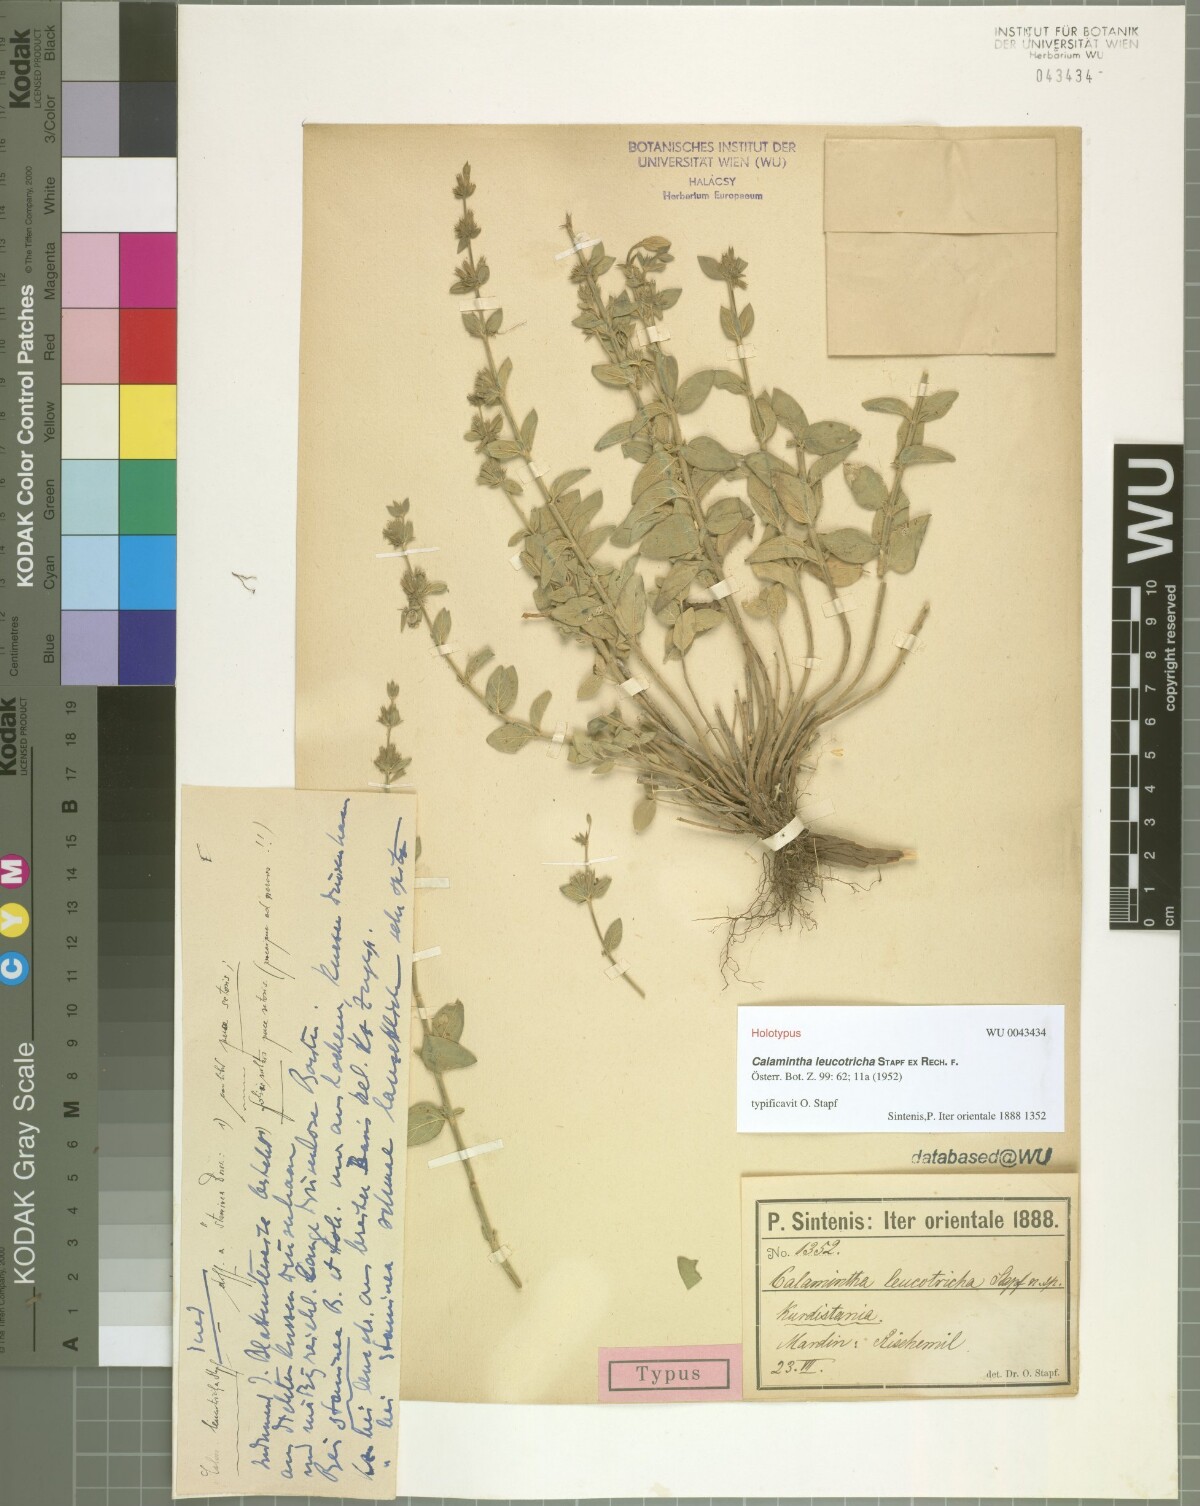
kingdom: Plantae
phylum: Tracheophyta
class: Magnoliopsida
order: Lamiales
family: Lamiaceae
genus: Cyclotrichium
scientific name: Cyclotrichium leucotrichum
